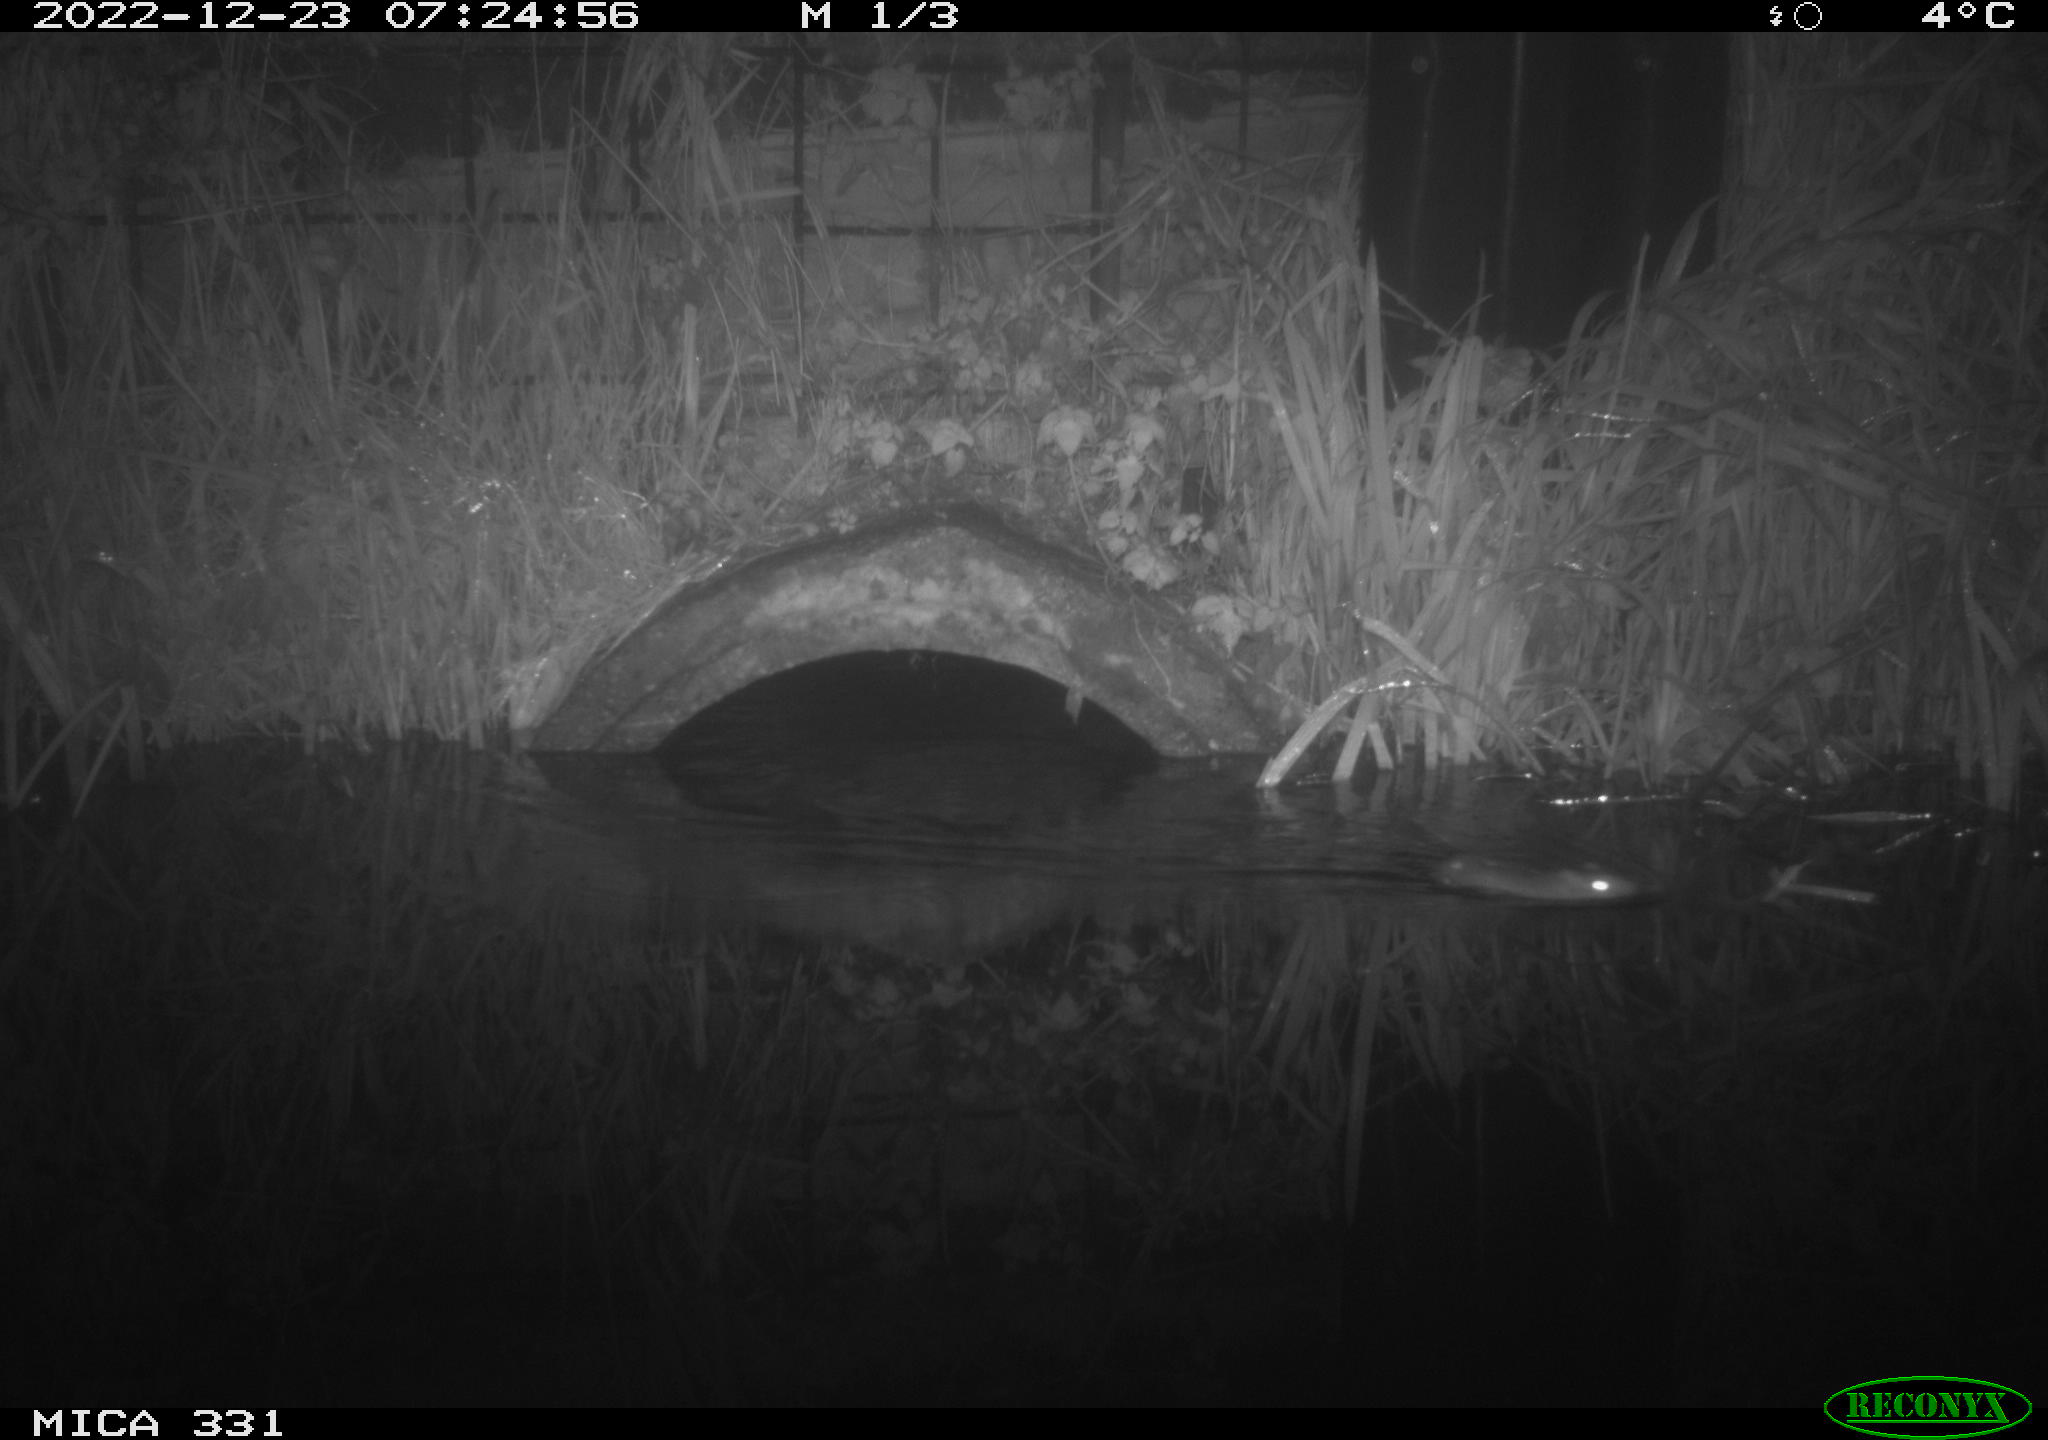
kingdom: Animalia
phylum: Chordata
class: Mammalia
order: Rodentia
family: Muridae
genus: Rattus
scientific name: Rattus norvegicus
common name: Brown rat
